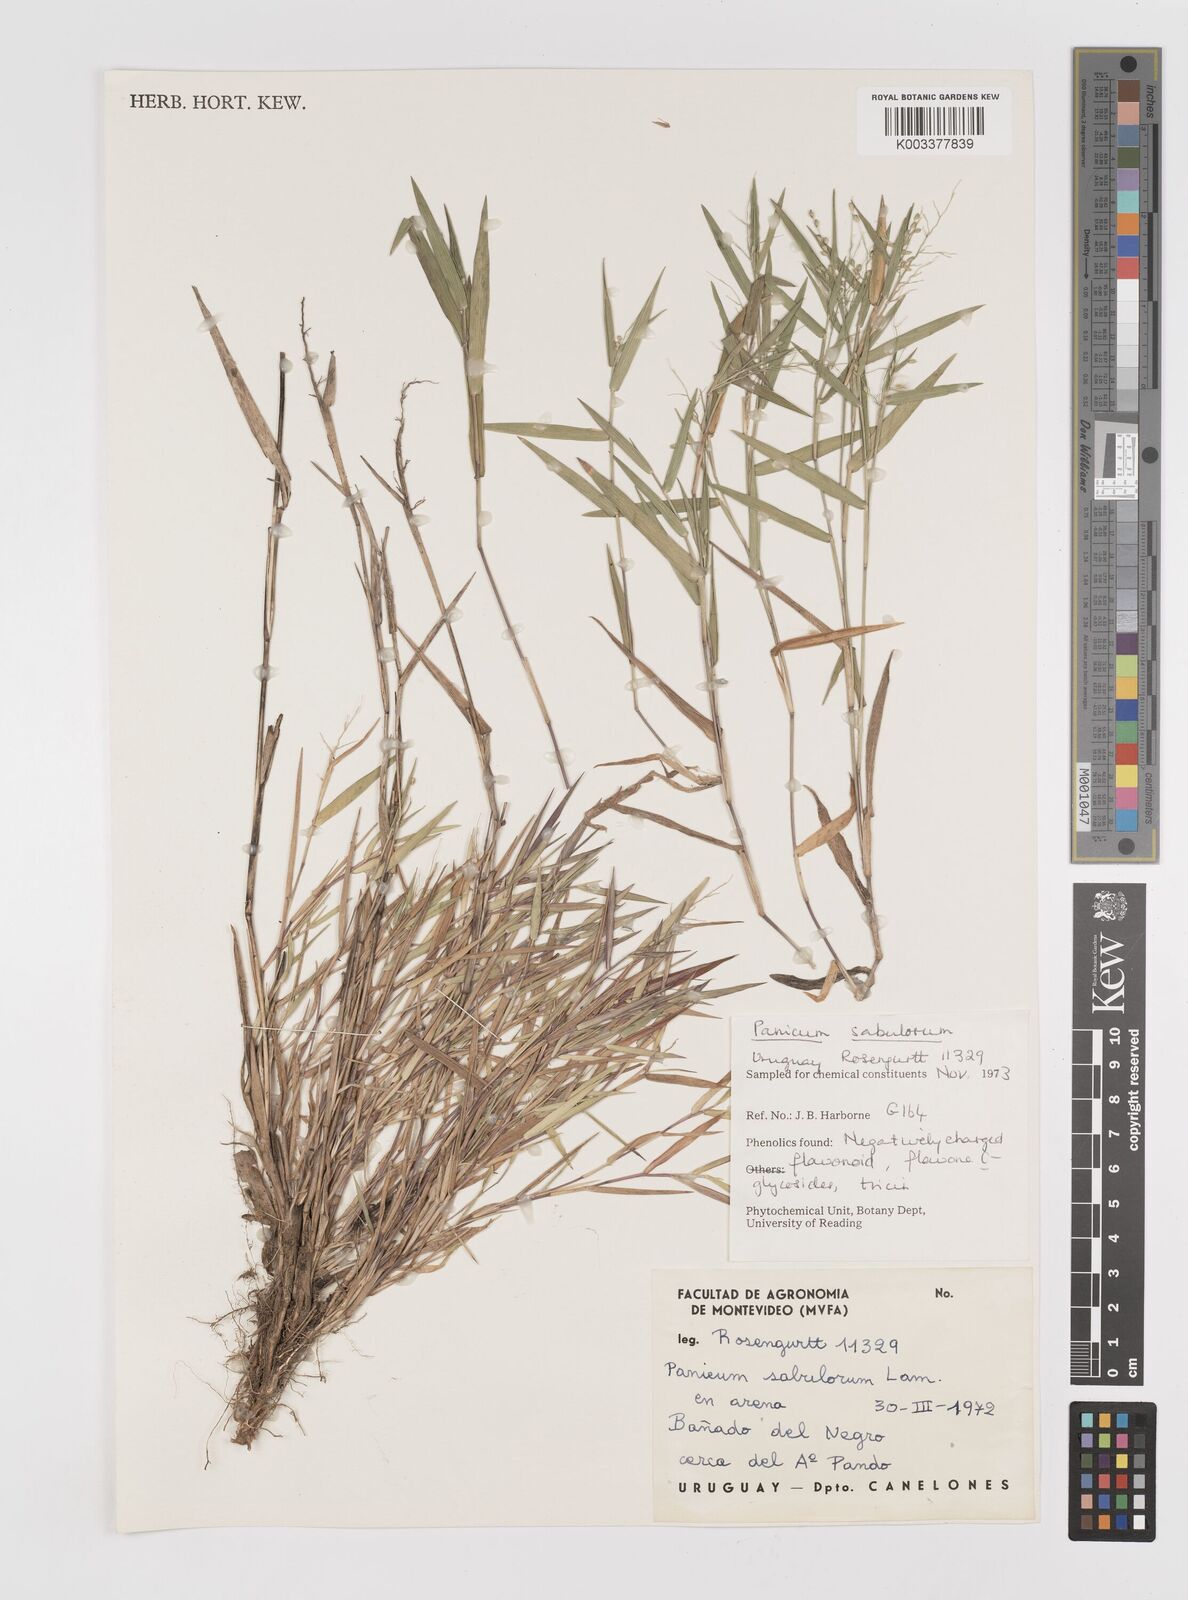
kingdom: Plantae
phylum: Tracheophyta
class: Liliopsida
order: Poales
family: Poaceae
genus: Dichanthelium
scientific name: Dichanthelium sabulorum
